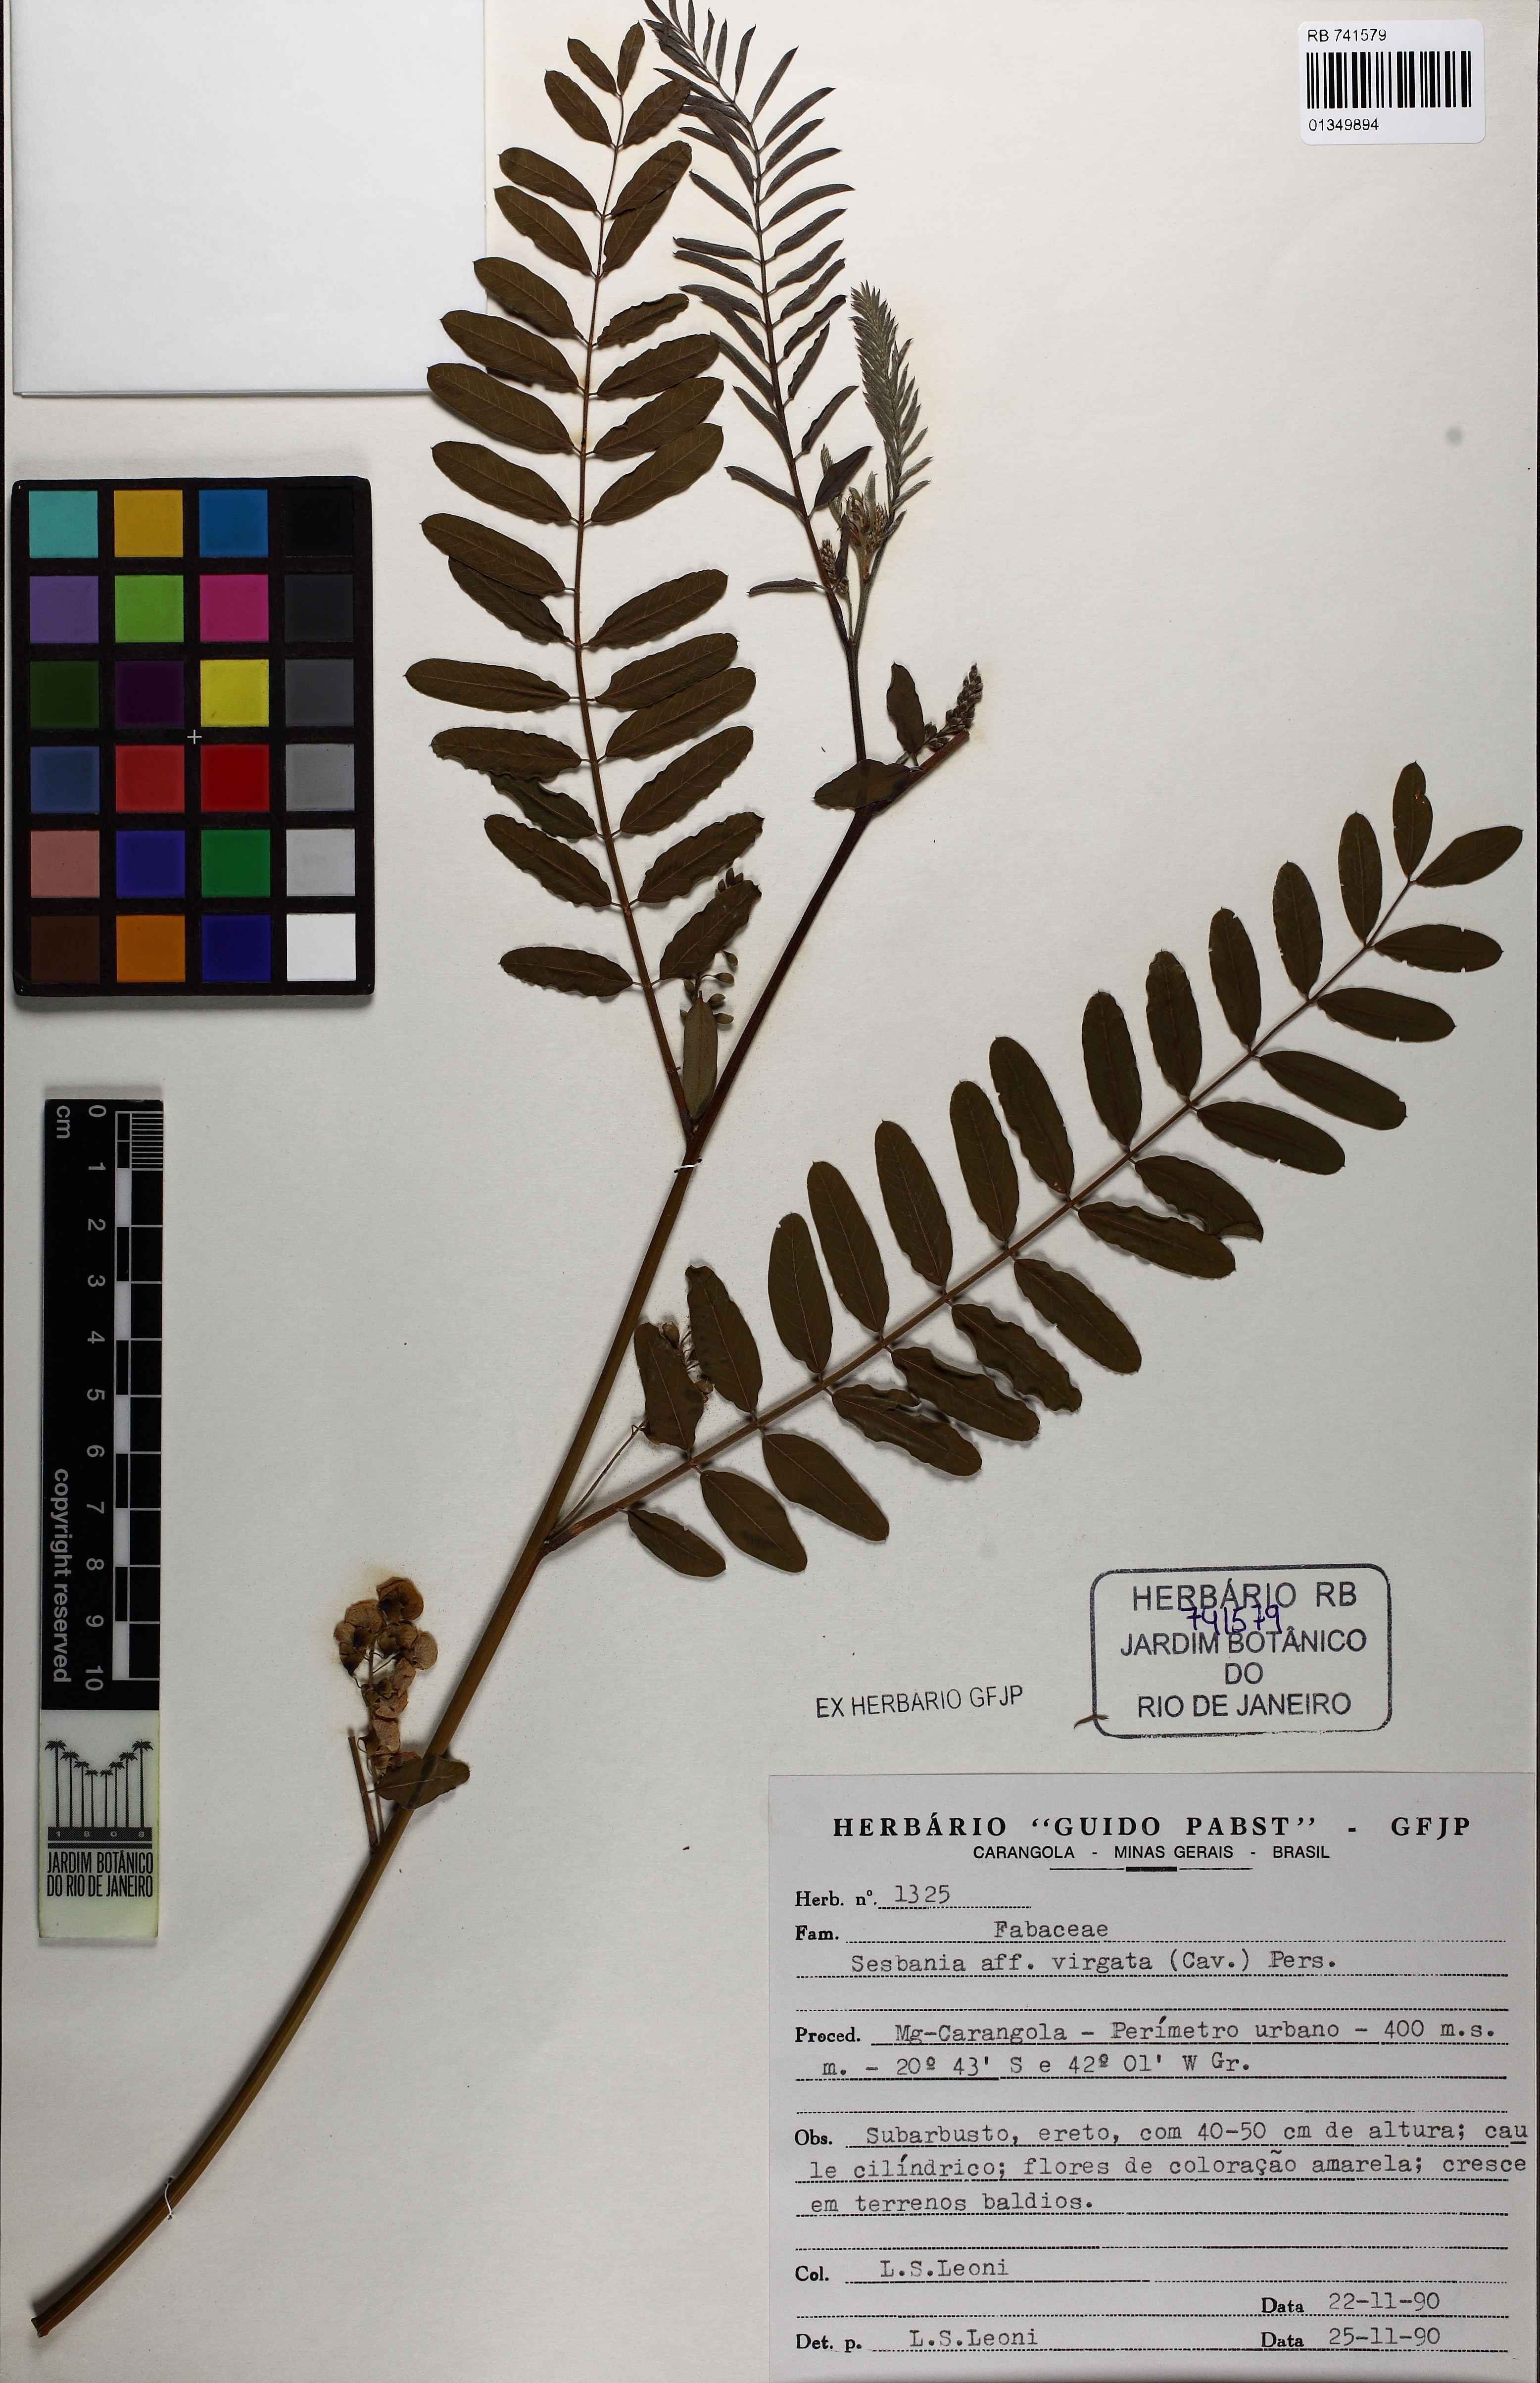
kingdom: Plantae
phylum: Tracheophyta
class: Magnoliopsida
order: Fabales
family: Fabaceae
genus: Sesbania
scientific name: Sesbania virgata
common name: Wand riverhemp
